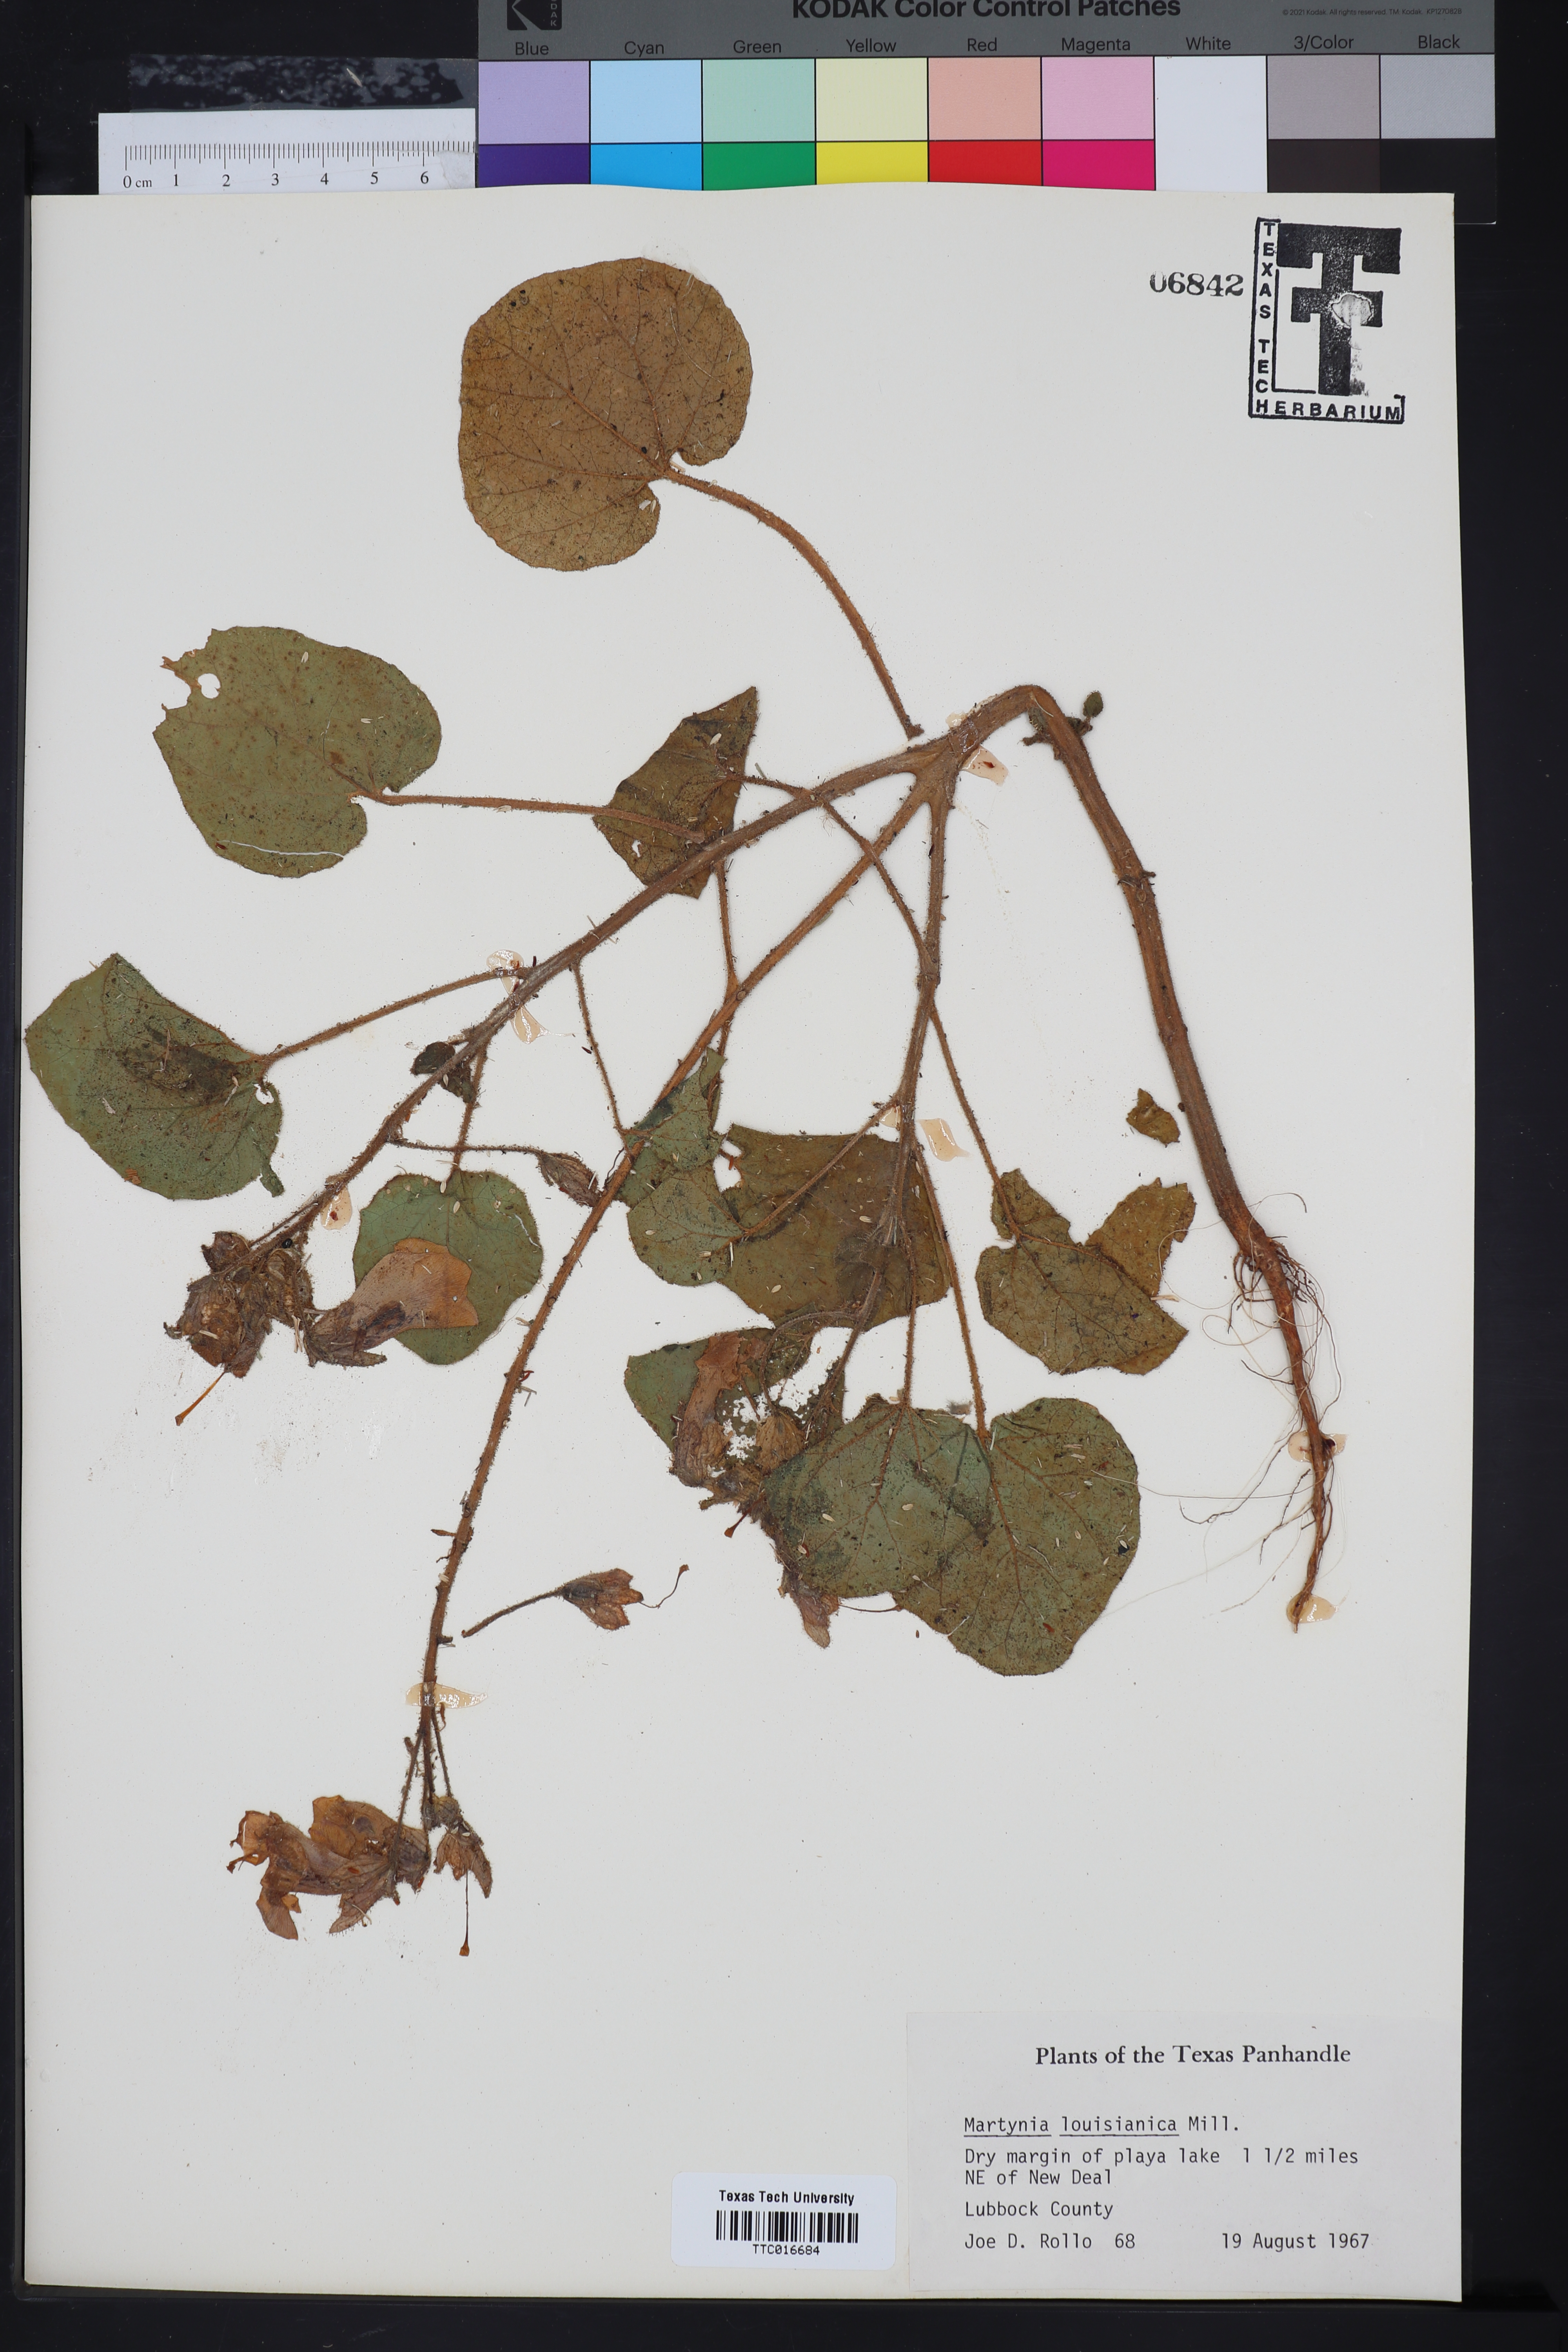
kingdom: Plantae
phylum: Tracheophyta
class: Magnoliopsida
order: Lamiales
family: Martyniaceae
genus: Proboscidea
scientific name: Proboscidea louisianica
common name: Elephant tusks
